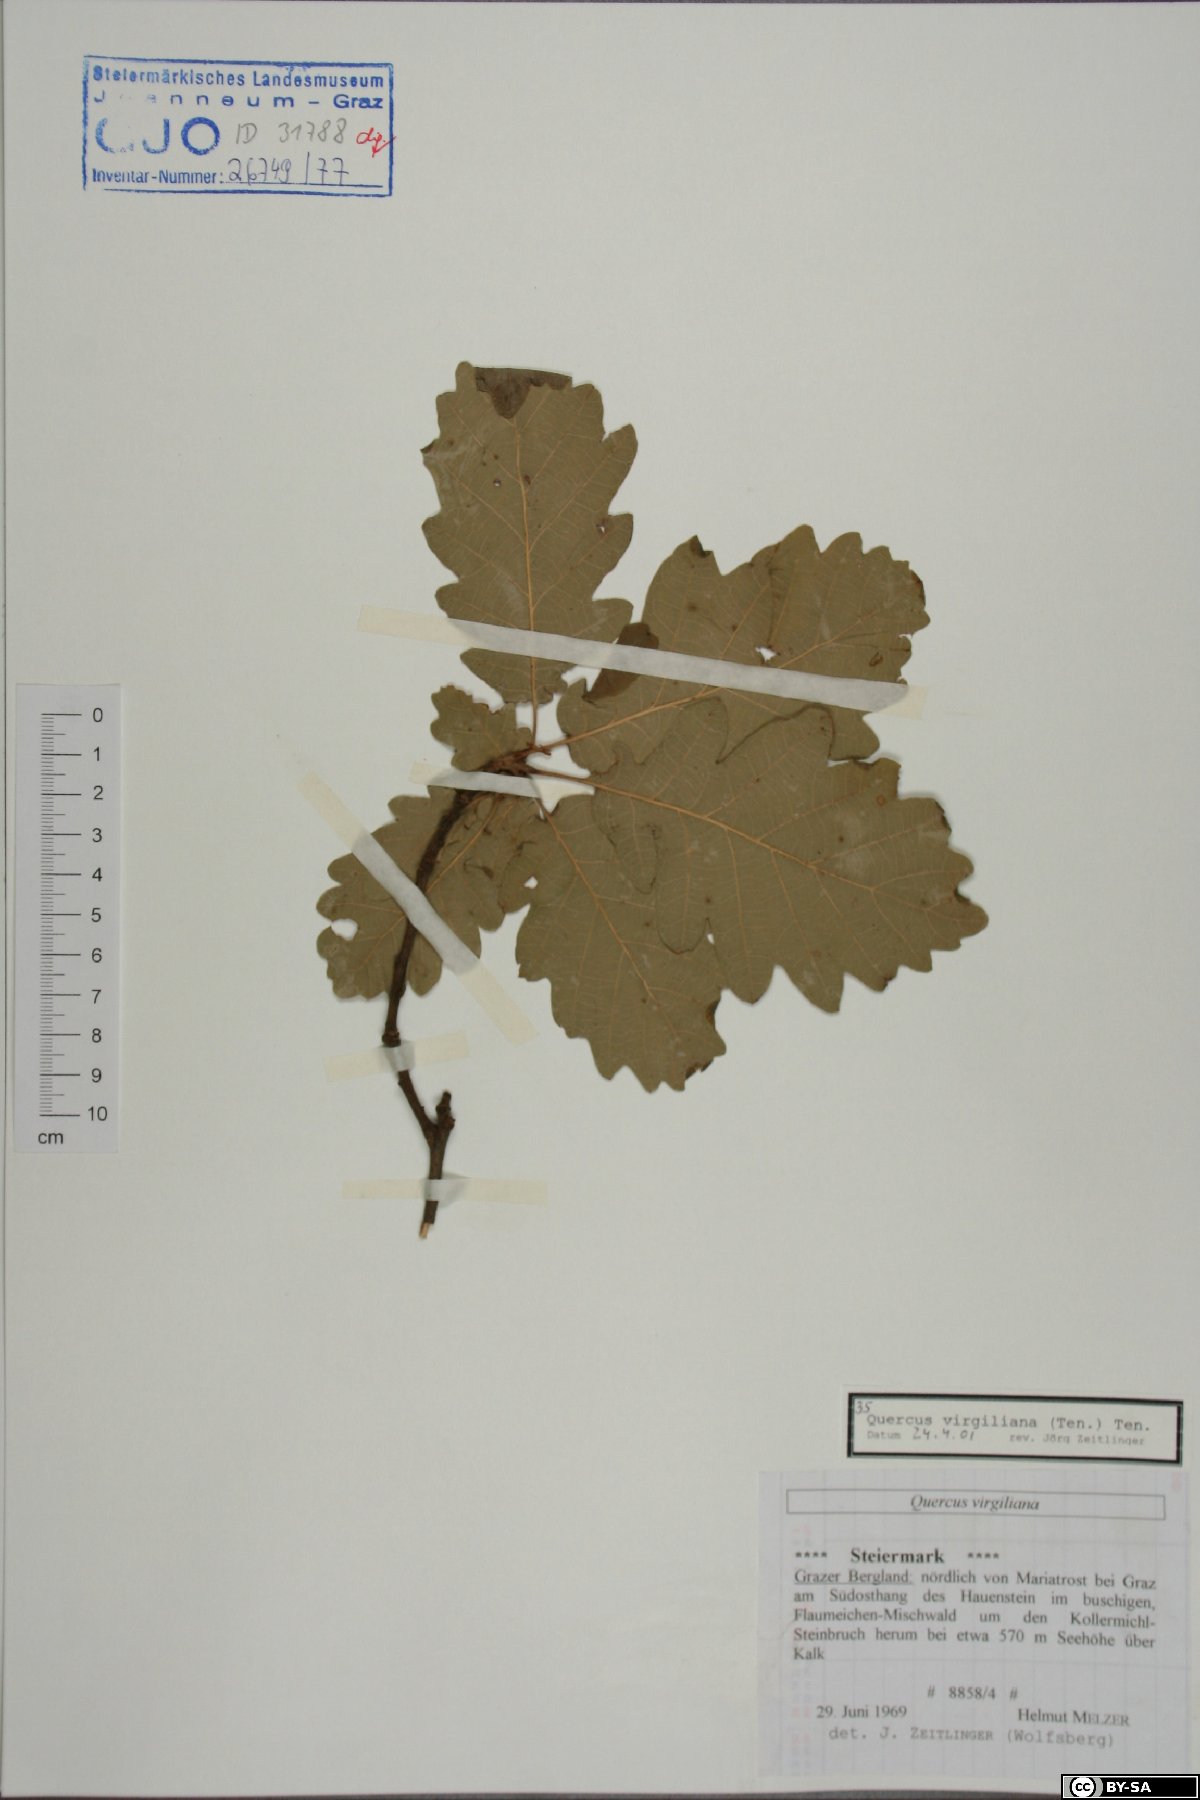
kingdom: Plantae
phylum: Tracheophyta
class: Magnoliopsida
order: Fagales
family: Fagaceae
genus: Quercus
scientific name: Quercus pubescens
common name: Downy oak
